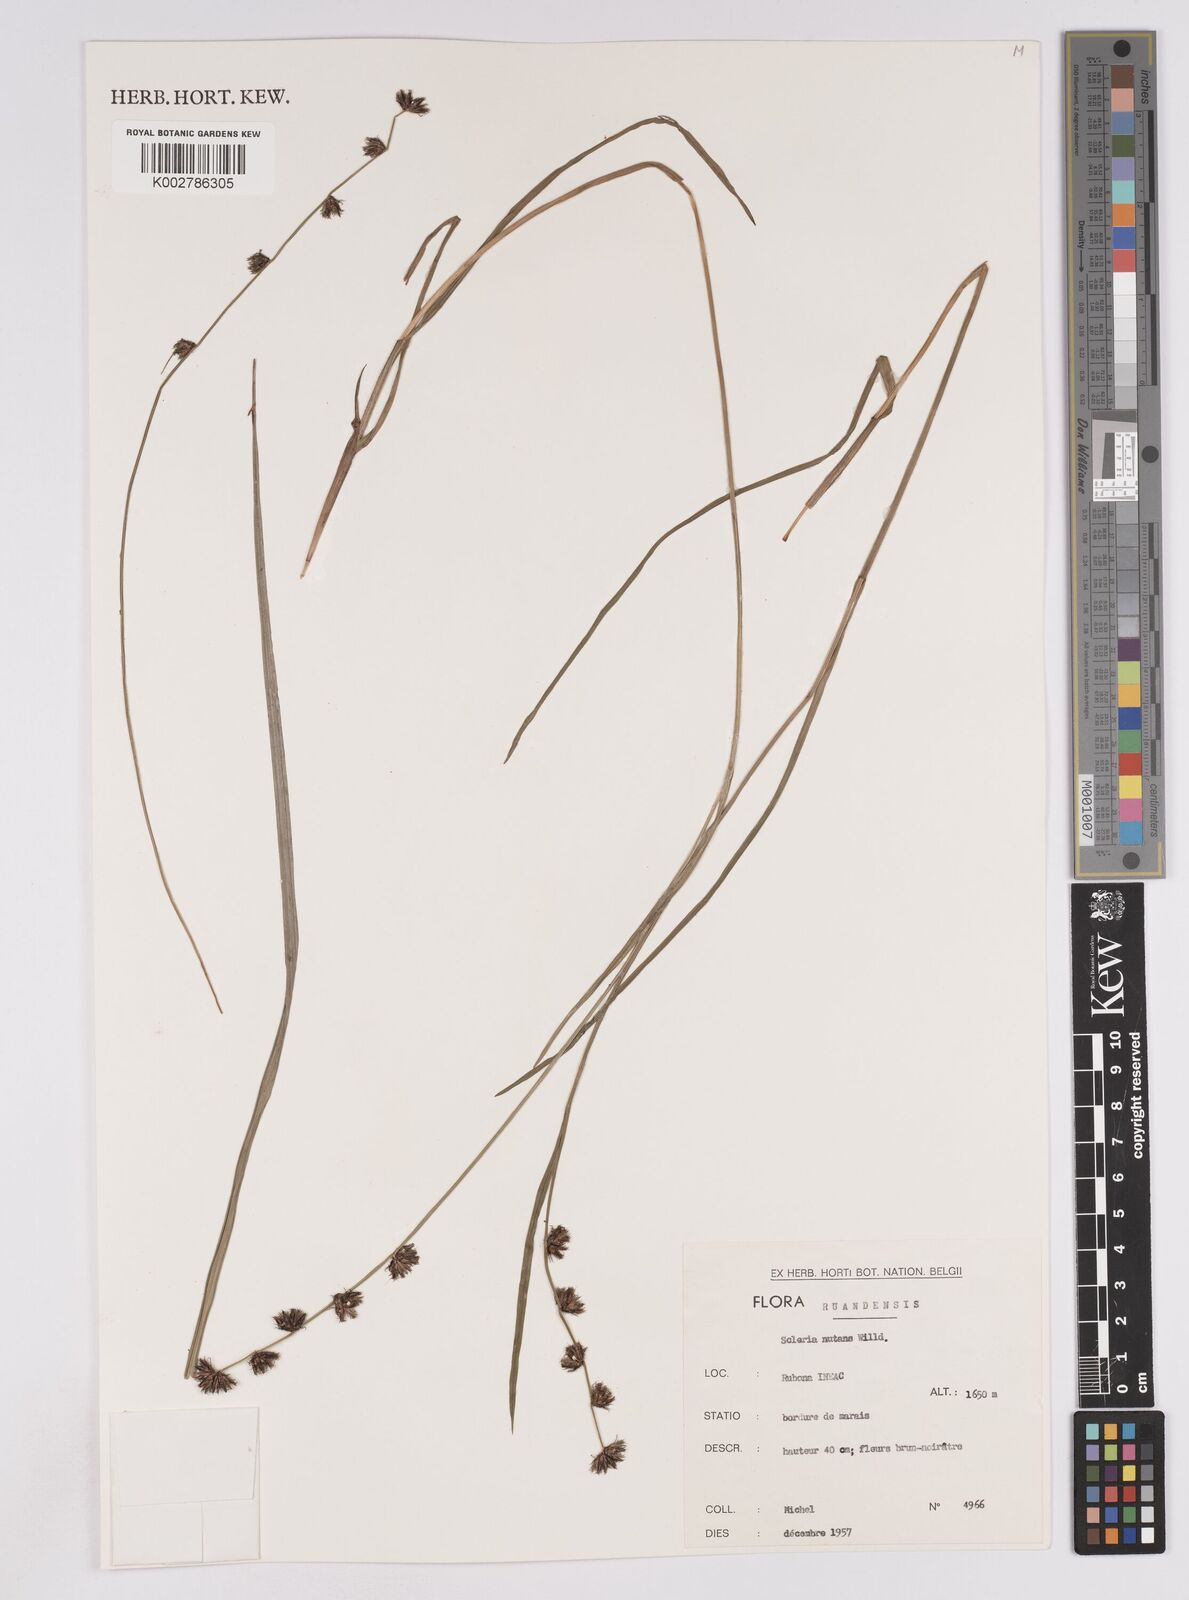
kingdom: Plantae
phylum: Tracheophyta
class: Liliopsida
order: Poales
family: Cyperaceae
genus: Scleria
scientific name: Scleria brownii
